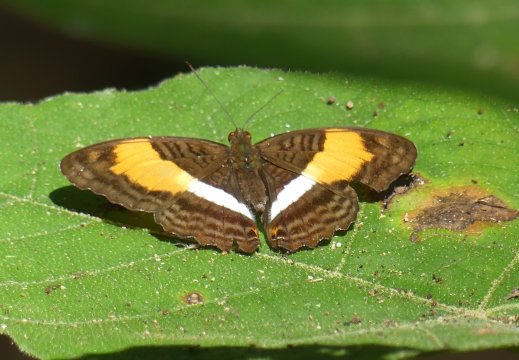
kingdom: Animalia
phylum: Arthropoda
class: Insecta
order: Lepidoptera
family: Nymphalidae
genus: Limenitis
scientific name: Limenitis delinita
